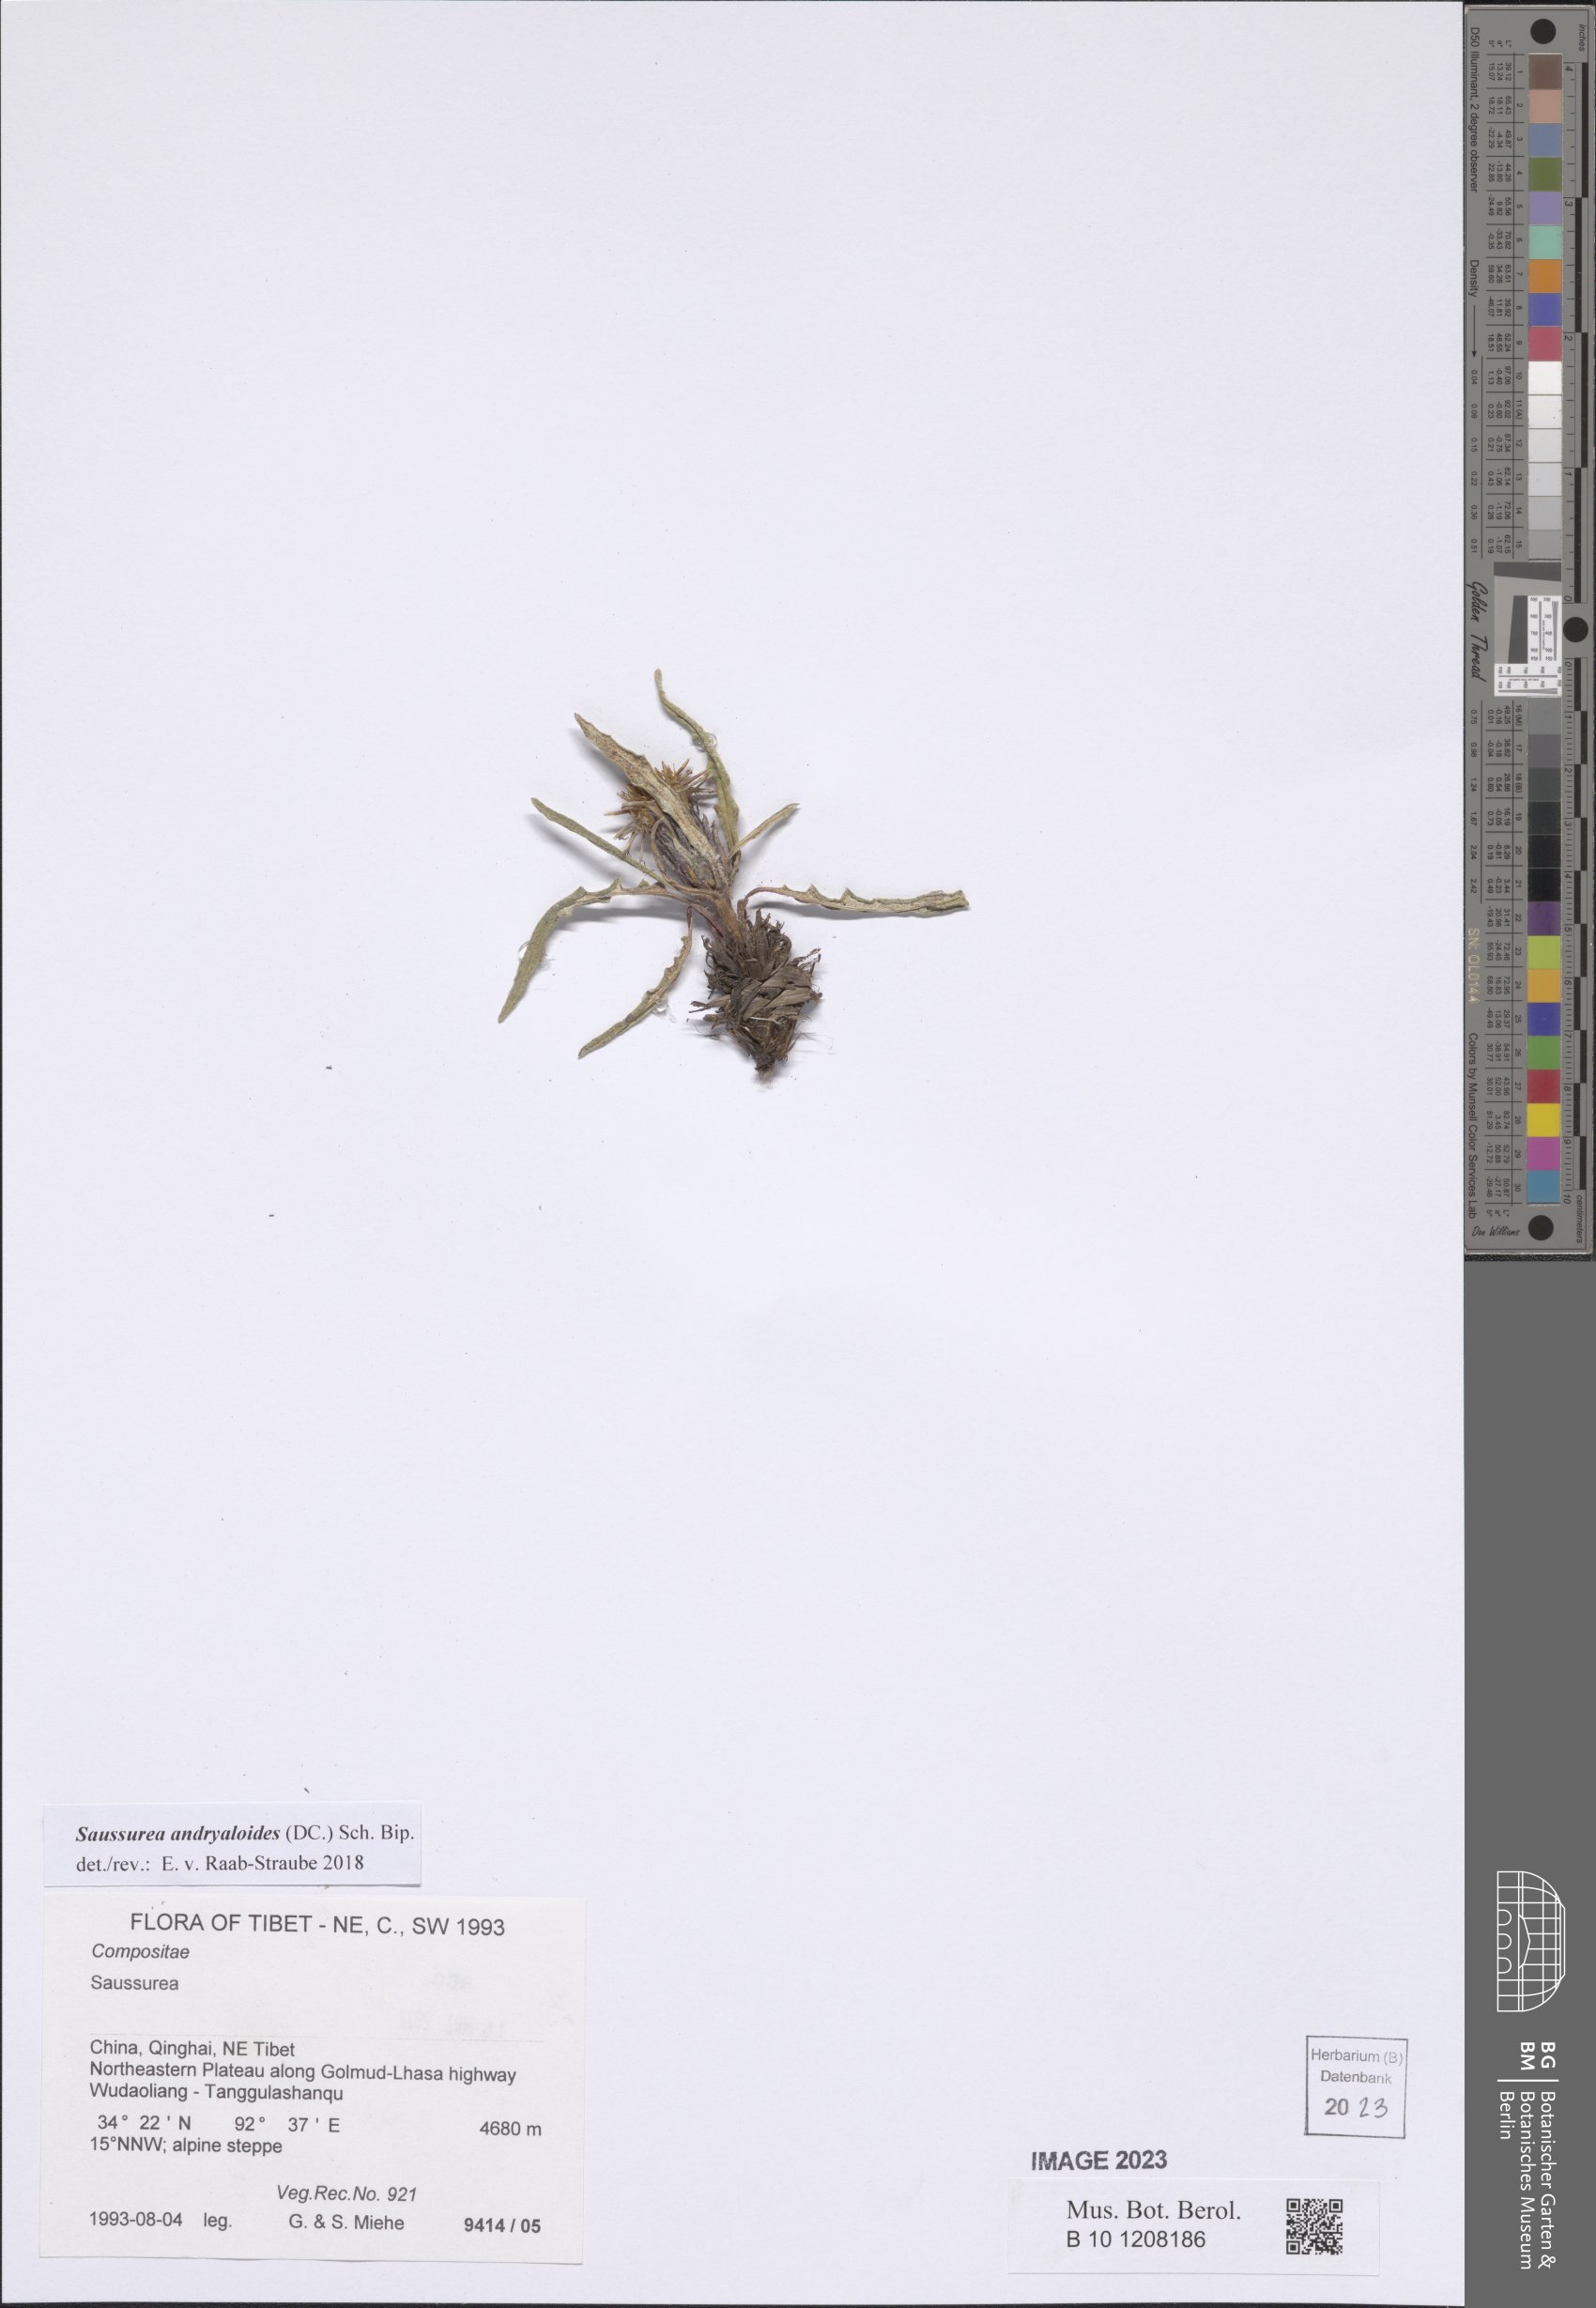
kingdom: Plantae
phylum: Tracheophyta
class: Magnoliopsida
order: Asterales
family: Asteraceae
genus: Saussurea
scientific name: Saussurea andryaloides
